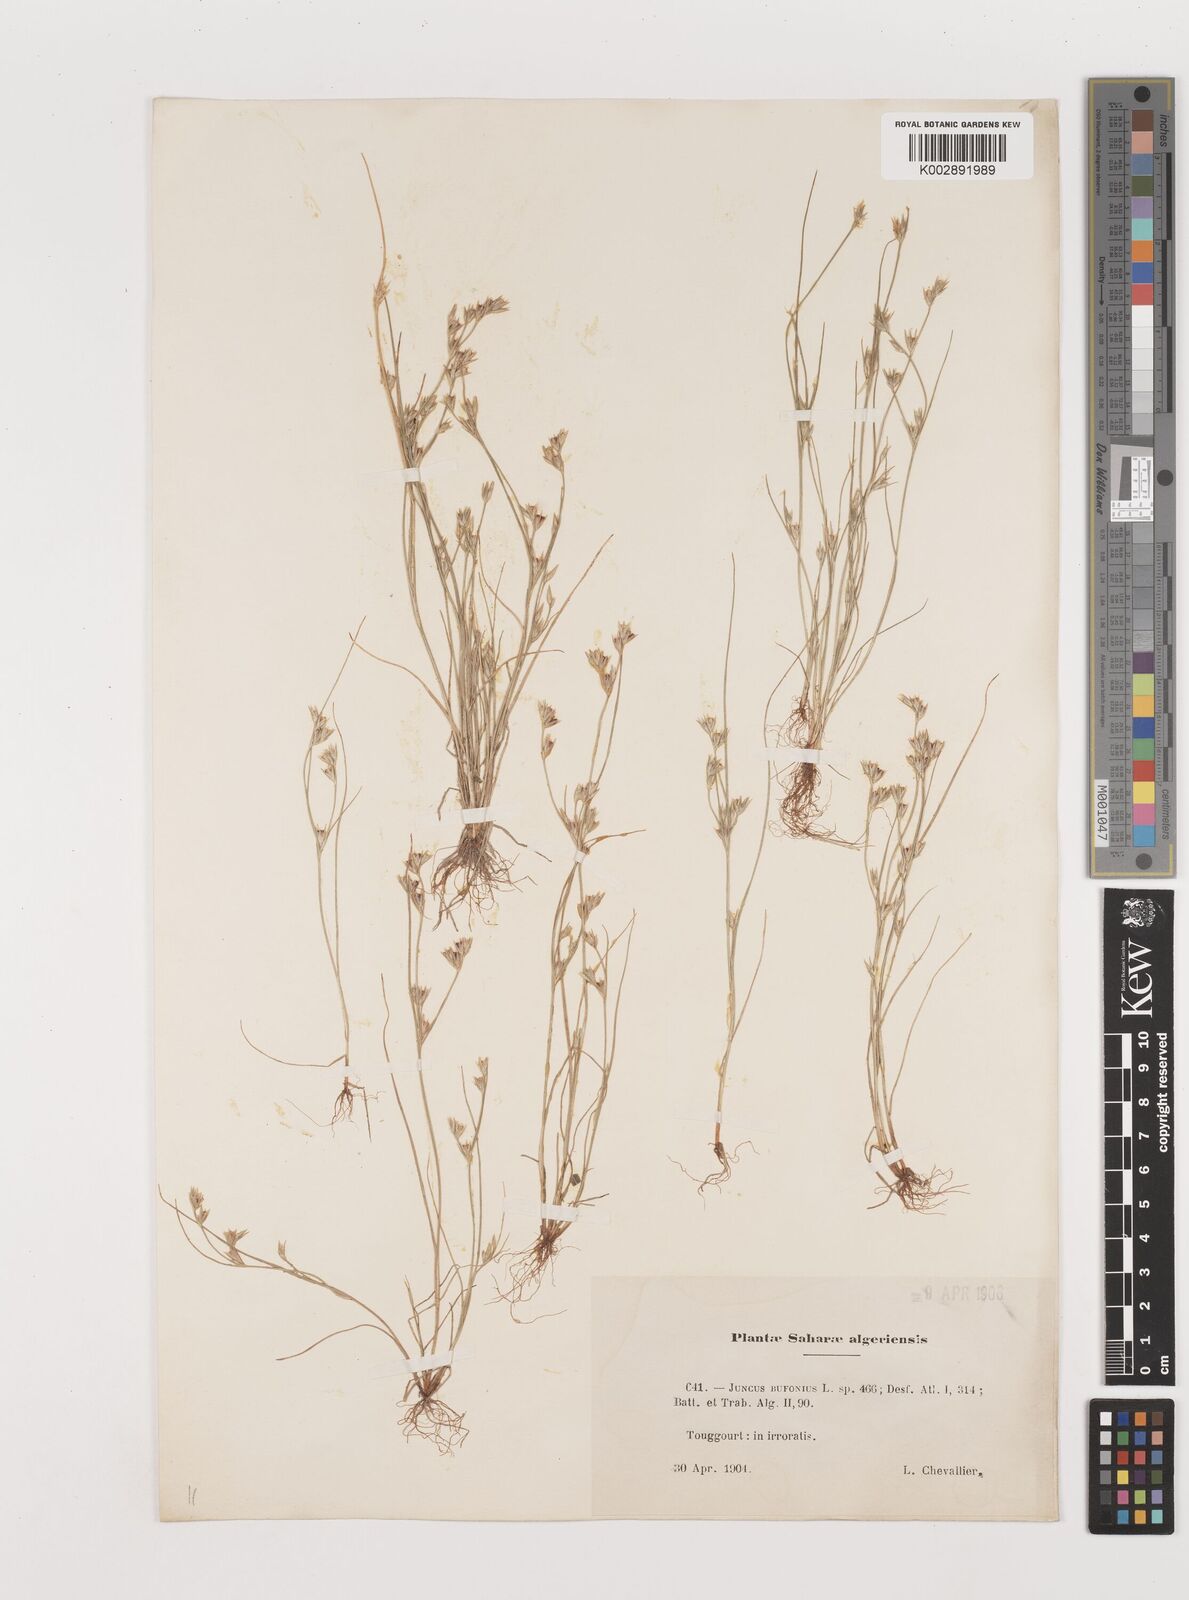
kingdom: Plantae
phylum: Tracheophyta
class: Liliopsida
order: Poales
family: Juncaceae
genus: Juncus
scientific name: Juncus bufonius
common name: Toad rush
